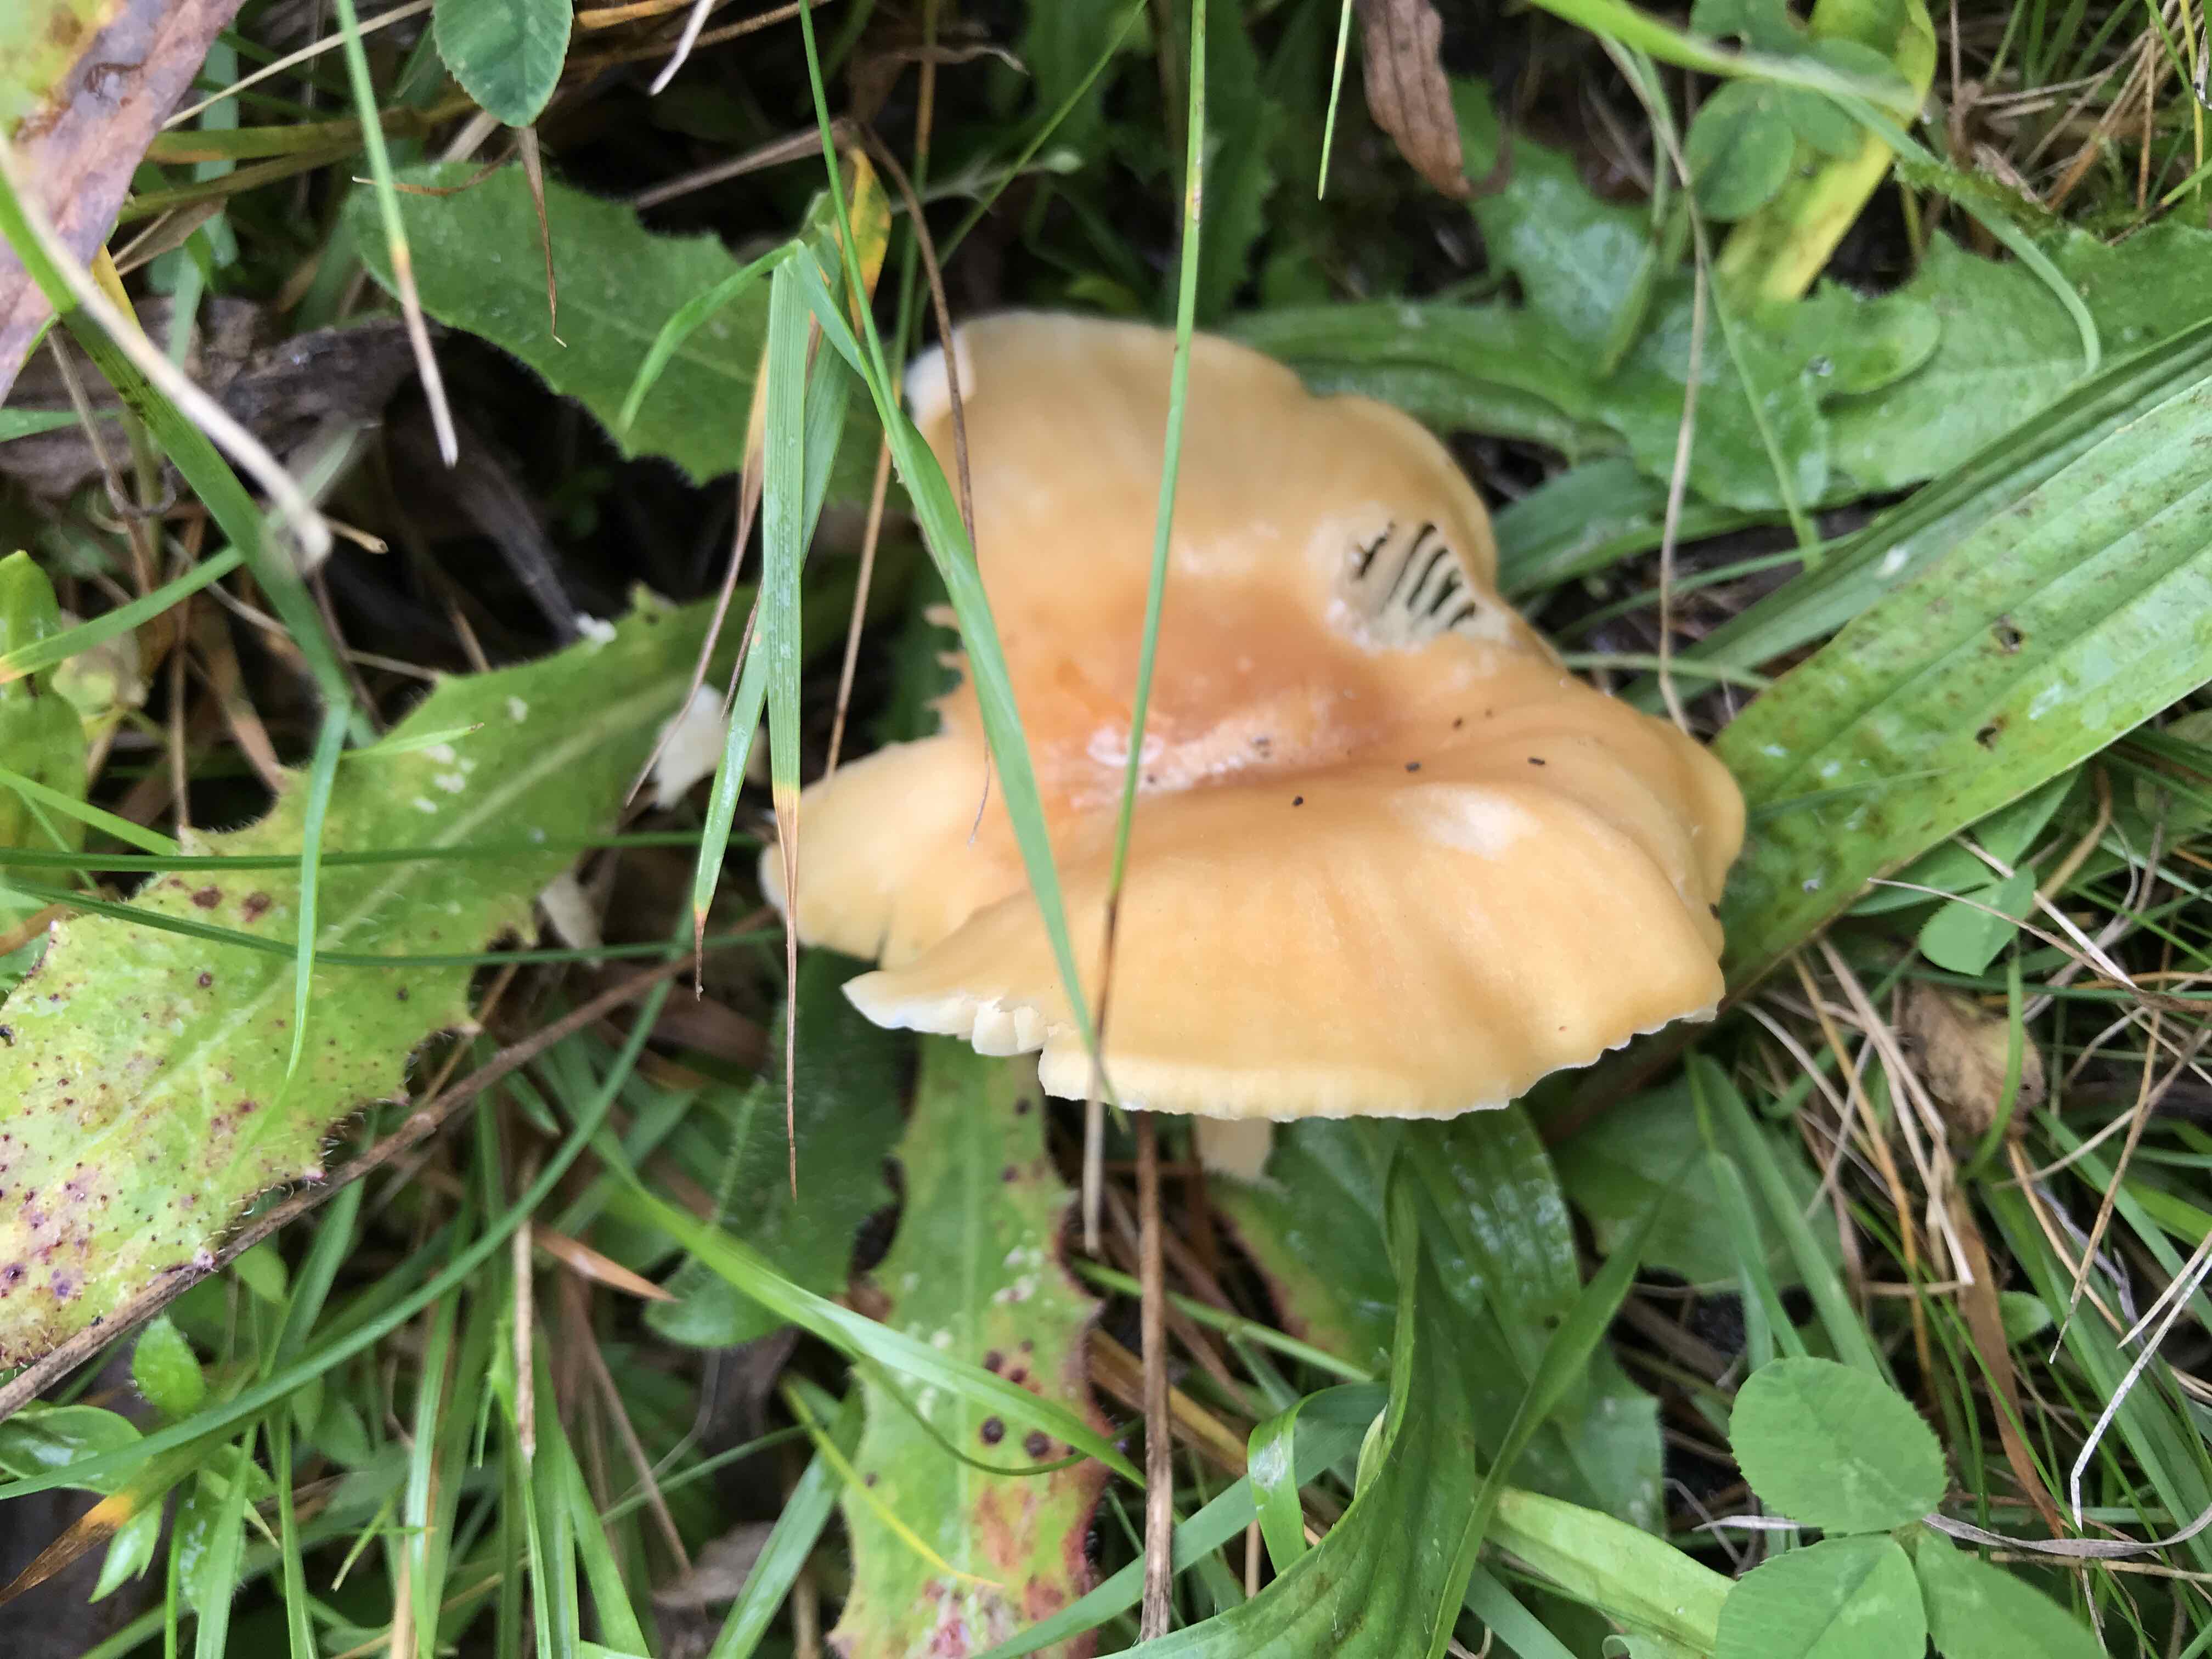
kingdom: Fungi
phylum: Basidiomycota
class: Agaricomycetes
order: Agaricales
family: Hygrophoraceae
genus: Cuphophyllus
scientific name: Cuphophyllus pratensis
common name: eng-vokshat
